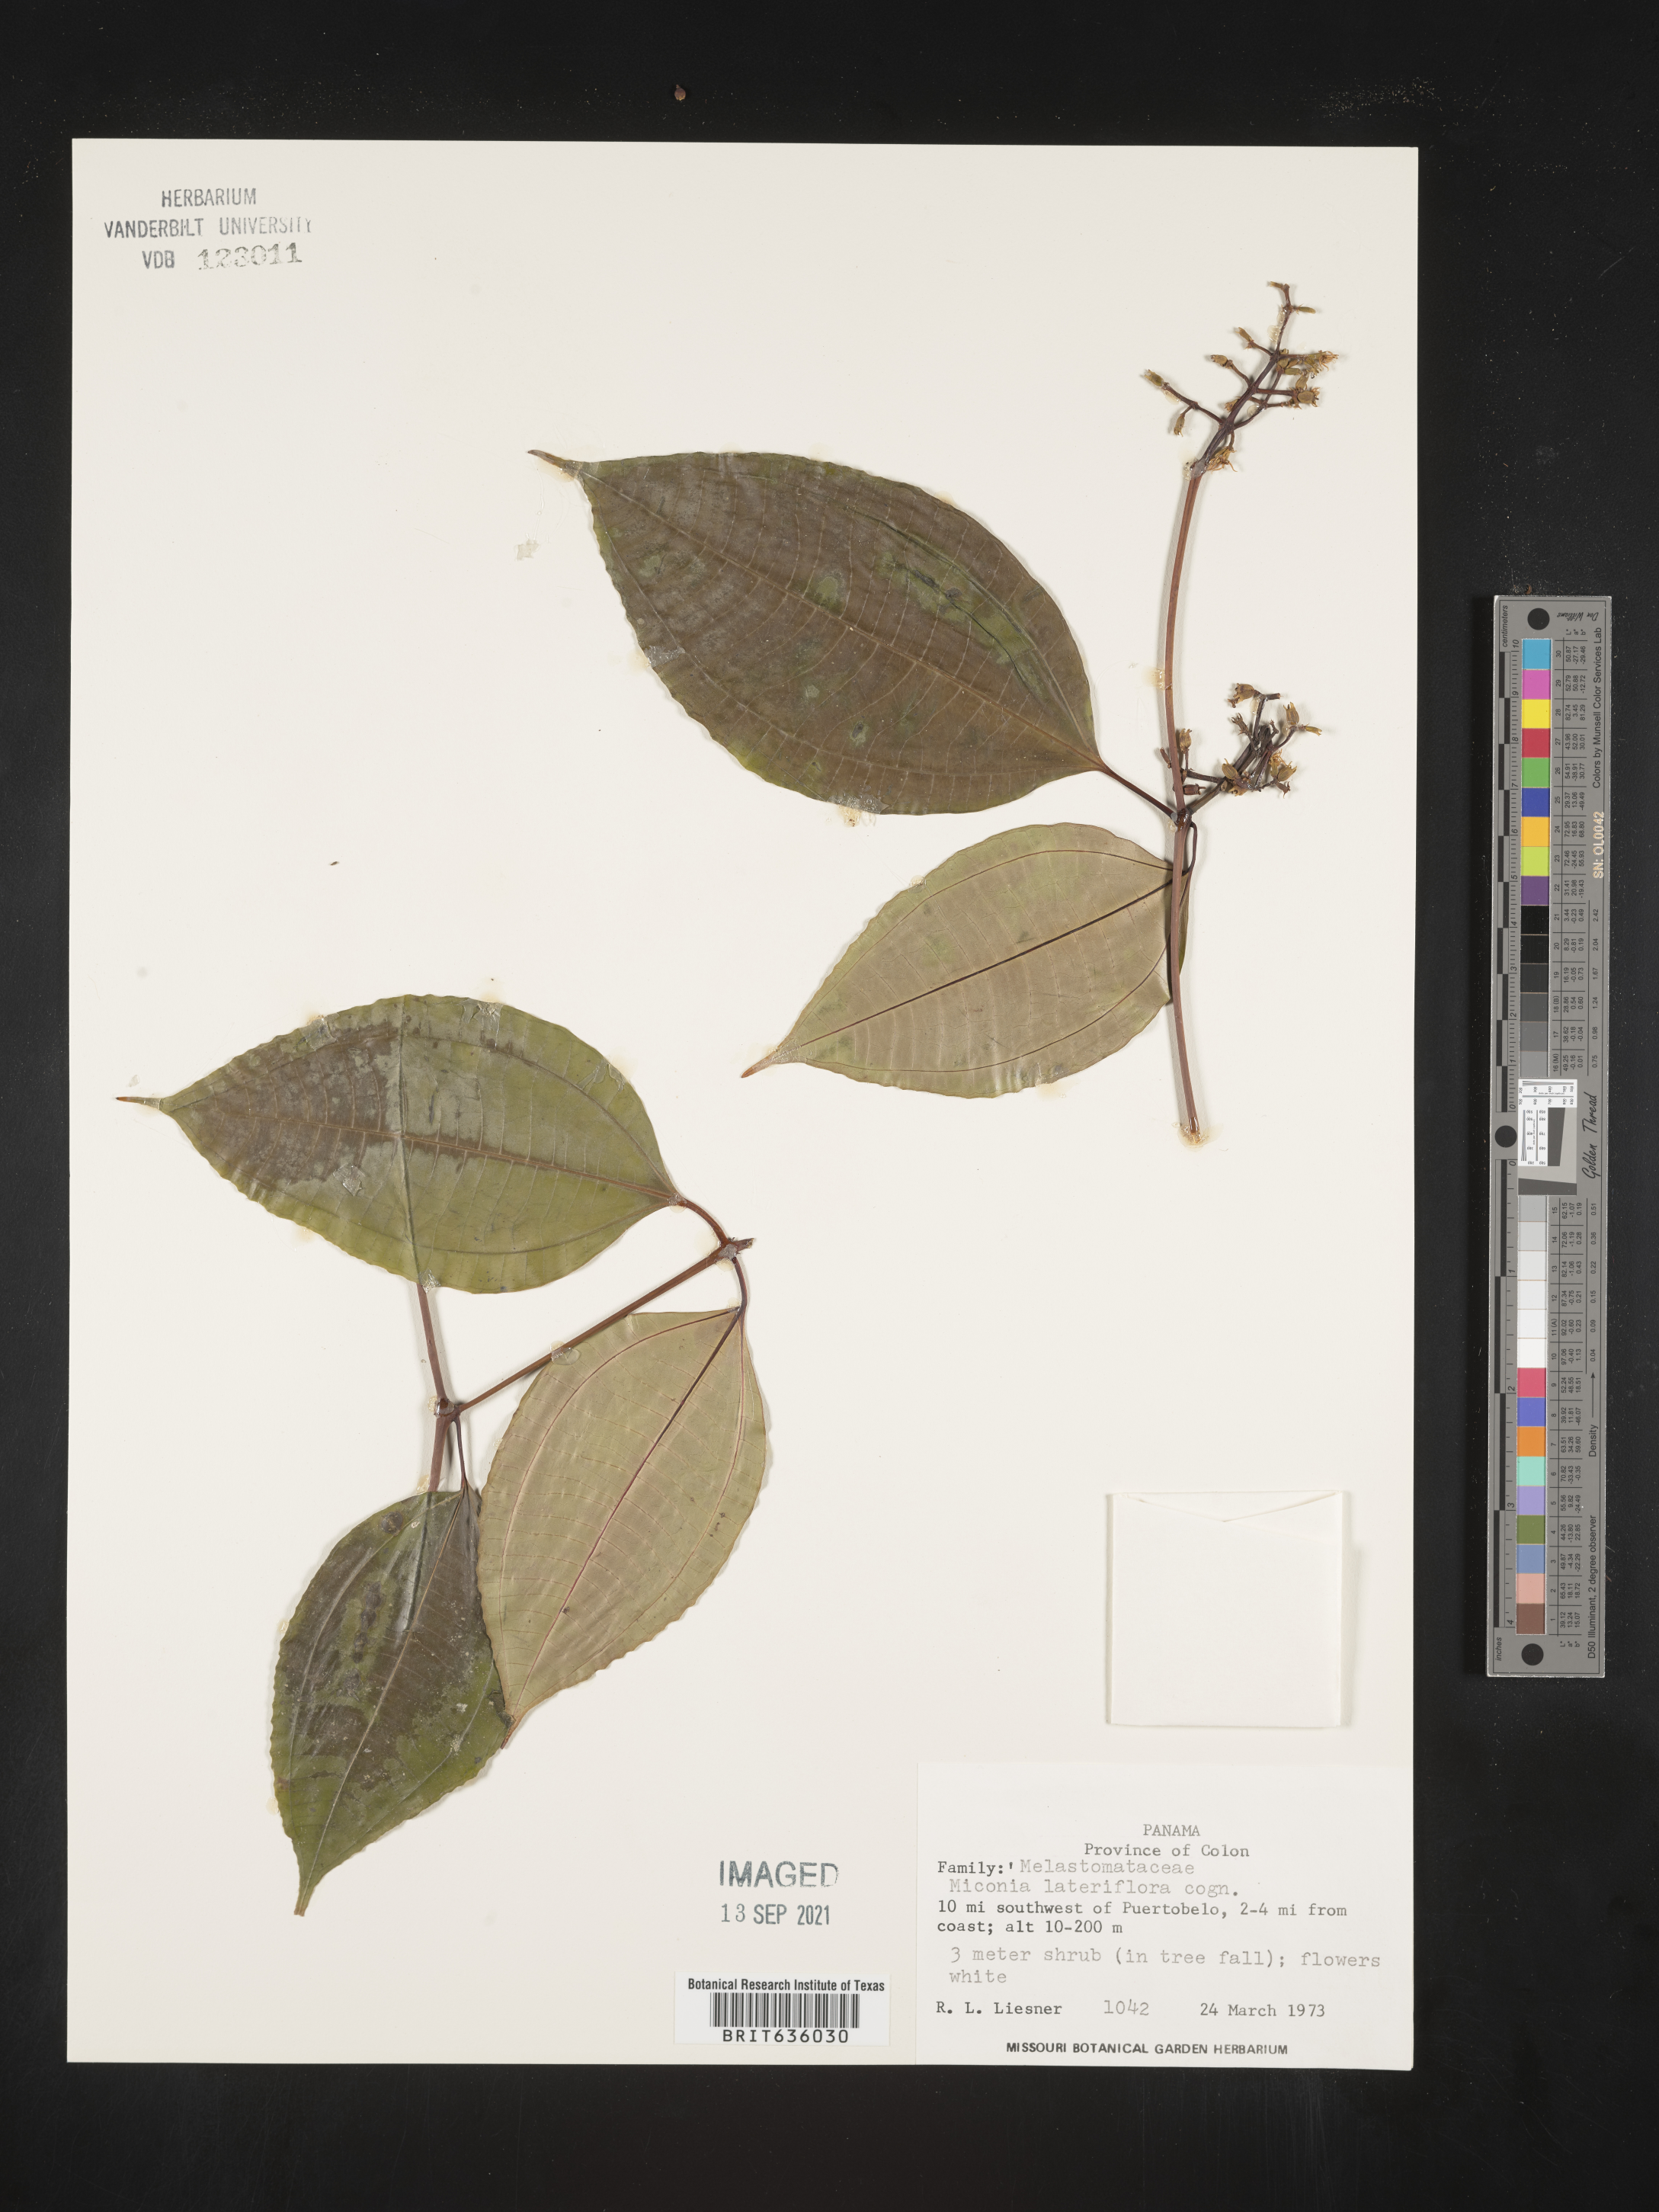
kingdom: Plantae
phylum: Tracheophyta
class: Magnoliopsida
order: Myrtales
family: Melastomataceae
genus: Miconia
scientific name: Miconia
